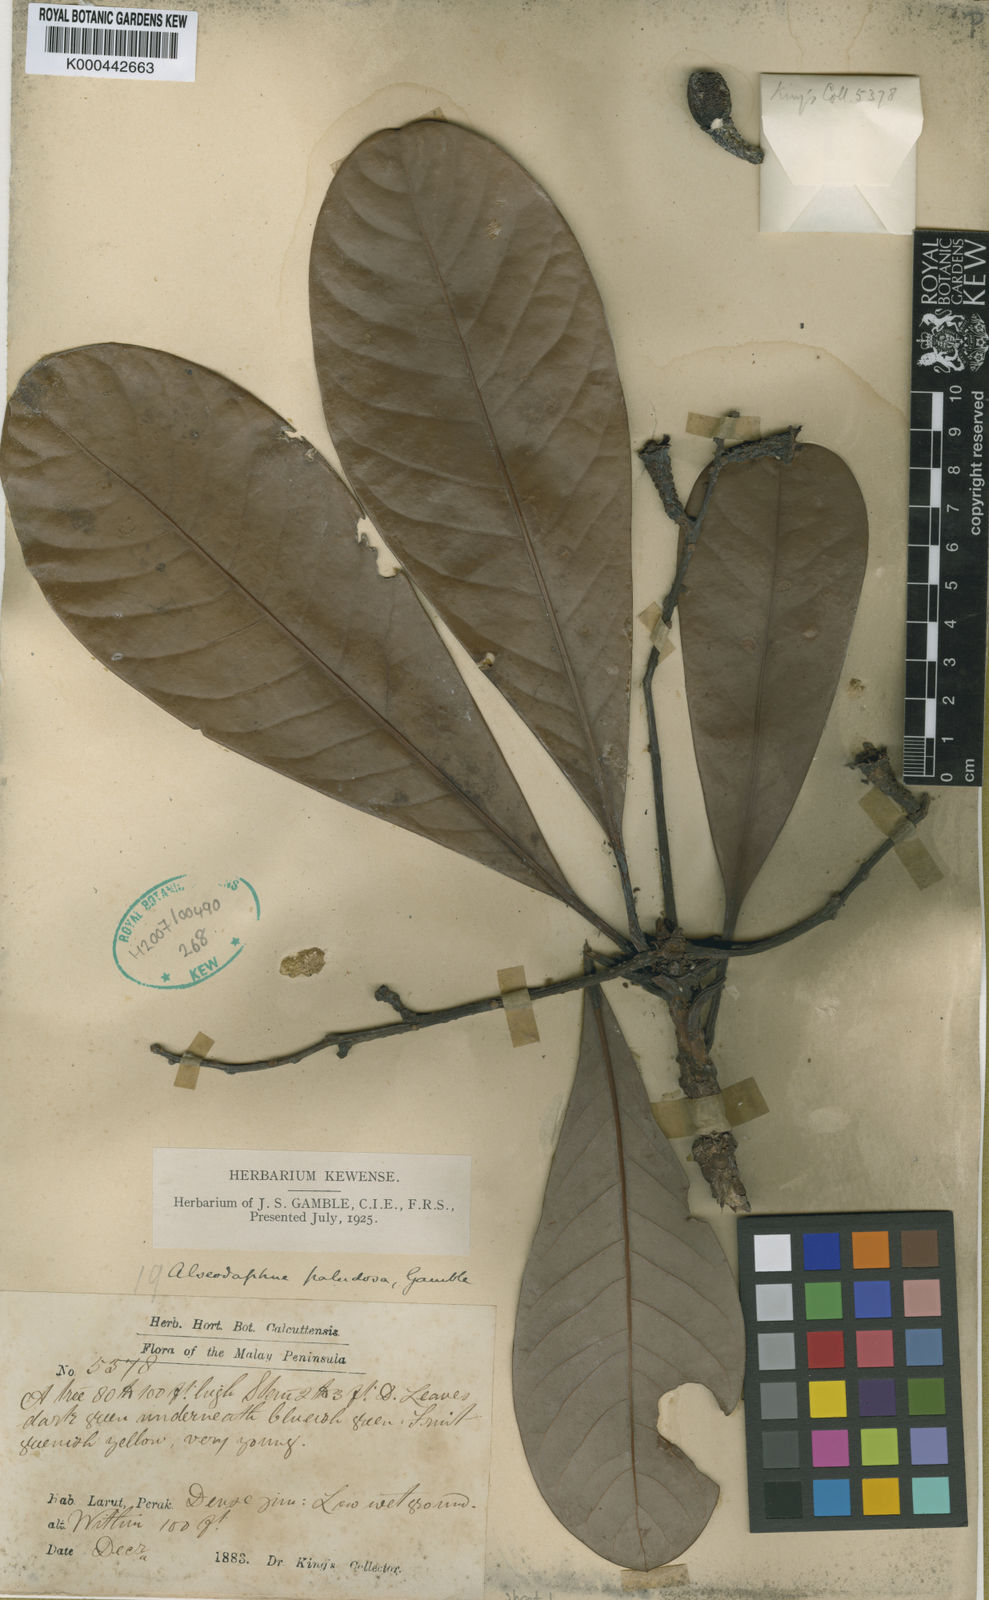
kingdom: Plantae
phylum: Tracheophyta
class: Magnoliopsida
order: Laurales
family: Lauraceae
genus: Alseodaphne
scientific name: Alseodaphne paludosa
